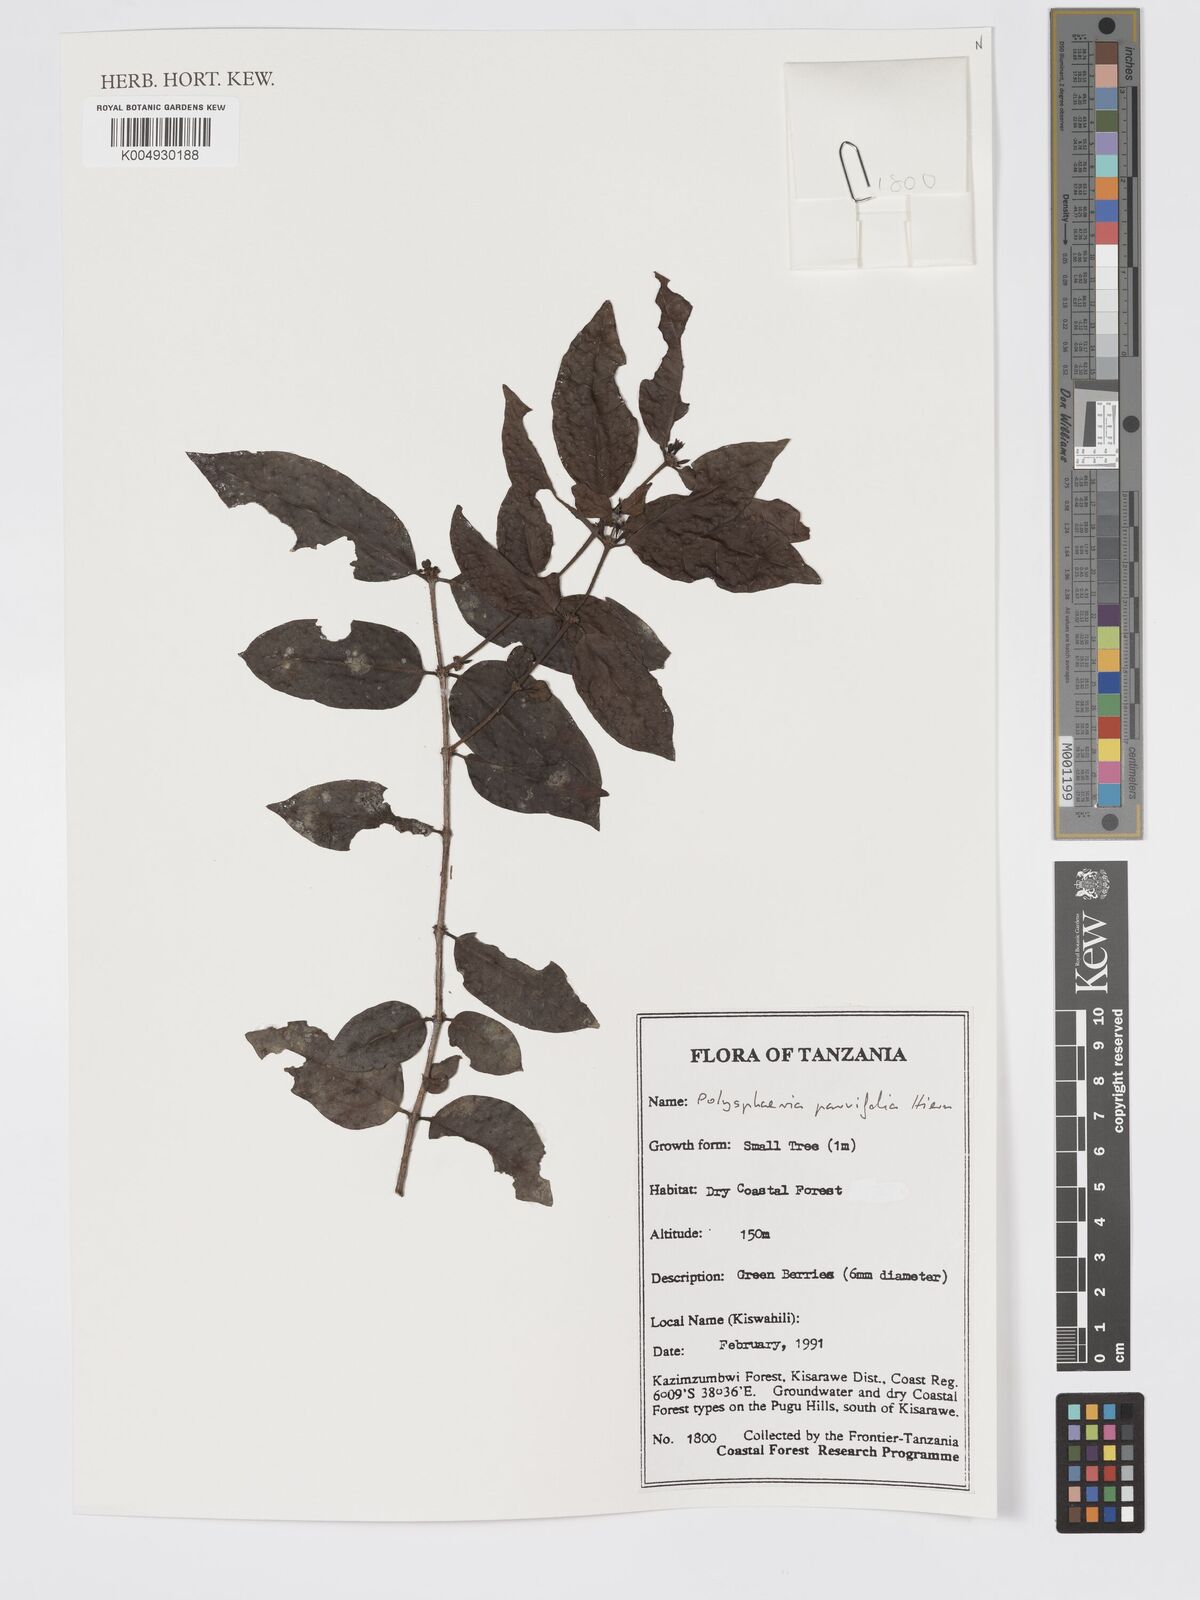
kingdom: Plantae
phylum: Tracheophyta
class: Magnoliopsida
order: Gentianales
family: Rubiaceae
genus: Polysphaeria
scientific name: Polysphaeria parvifolia
